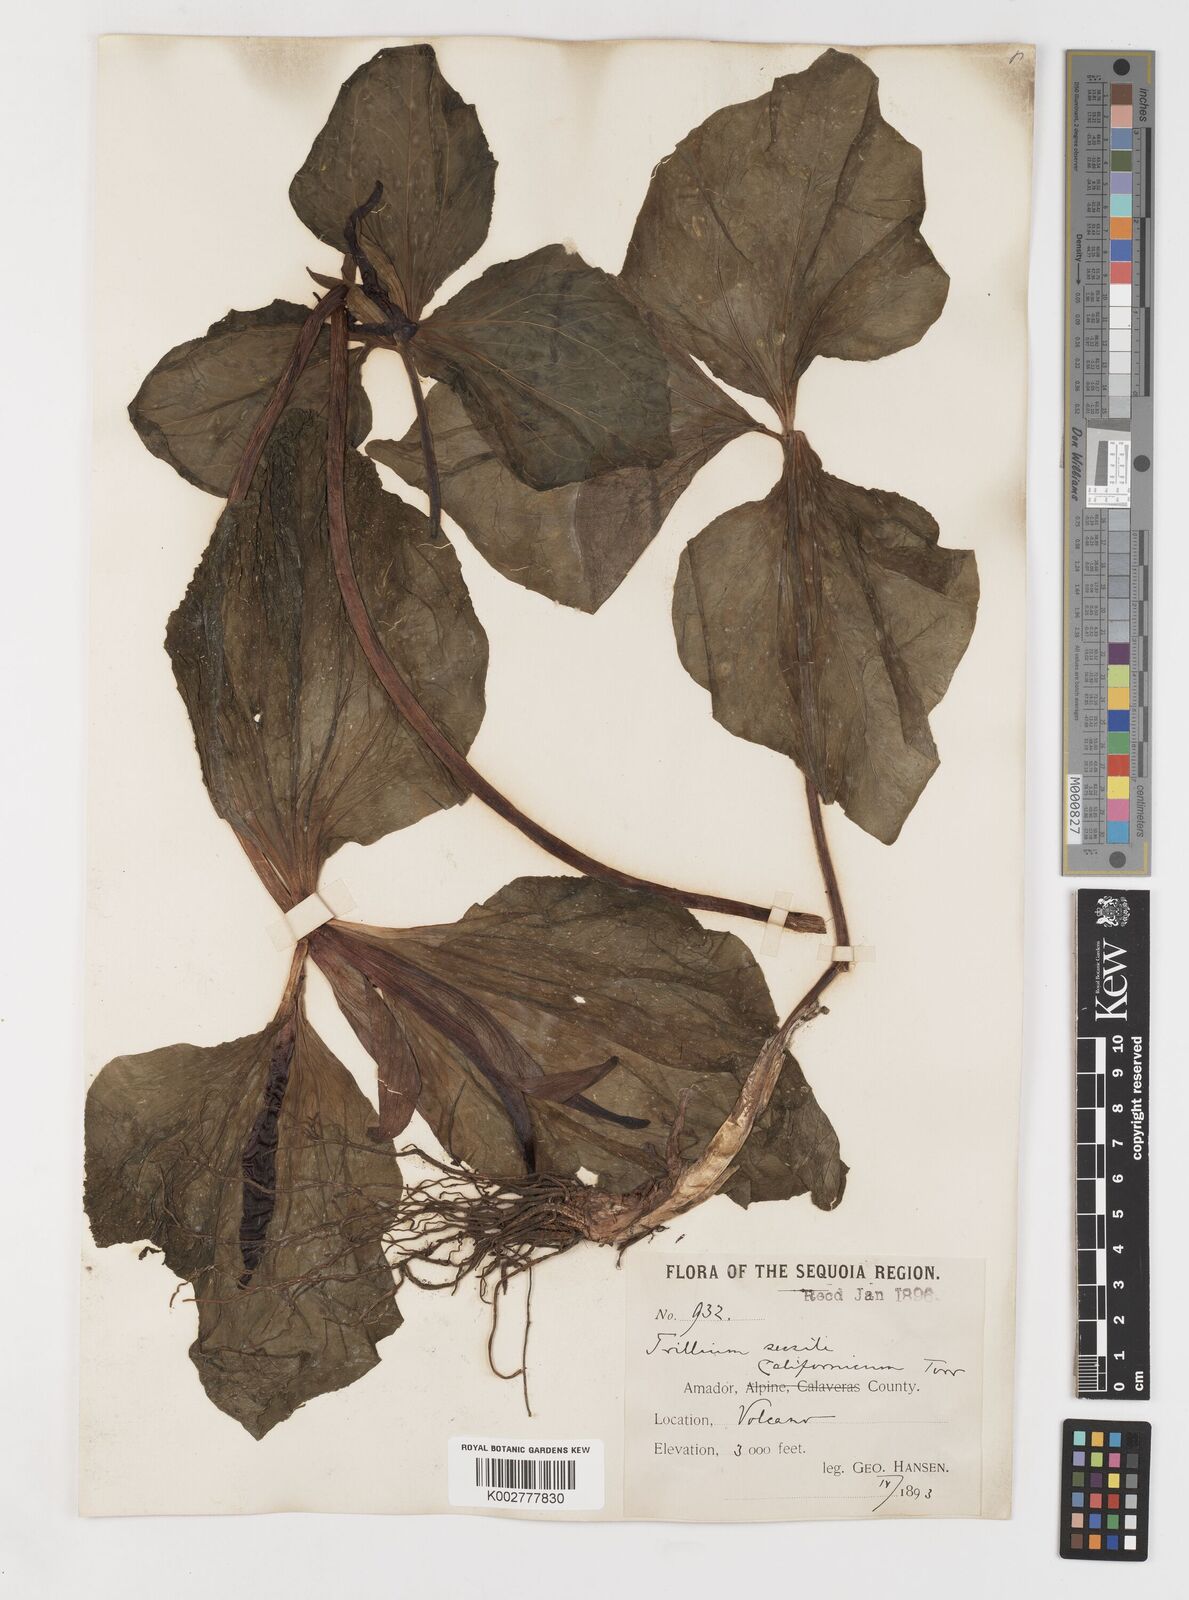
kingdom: Plantae
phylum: Tracheophyta
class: Liliopsida
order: Liliales
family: Melanthiaceae
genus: Trillium
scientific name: Trillium chloropetalum
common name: Giant trillium
